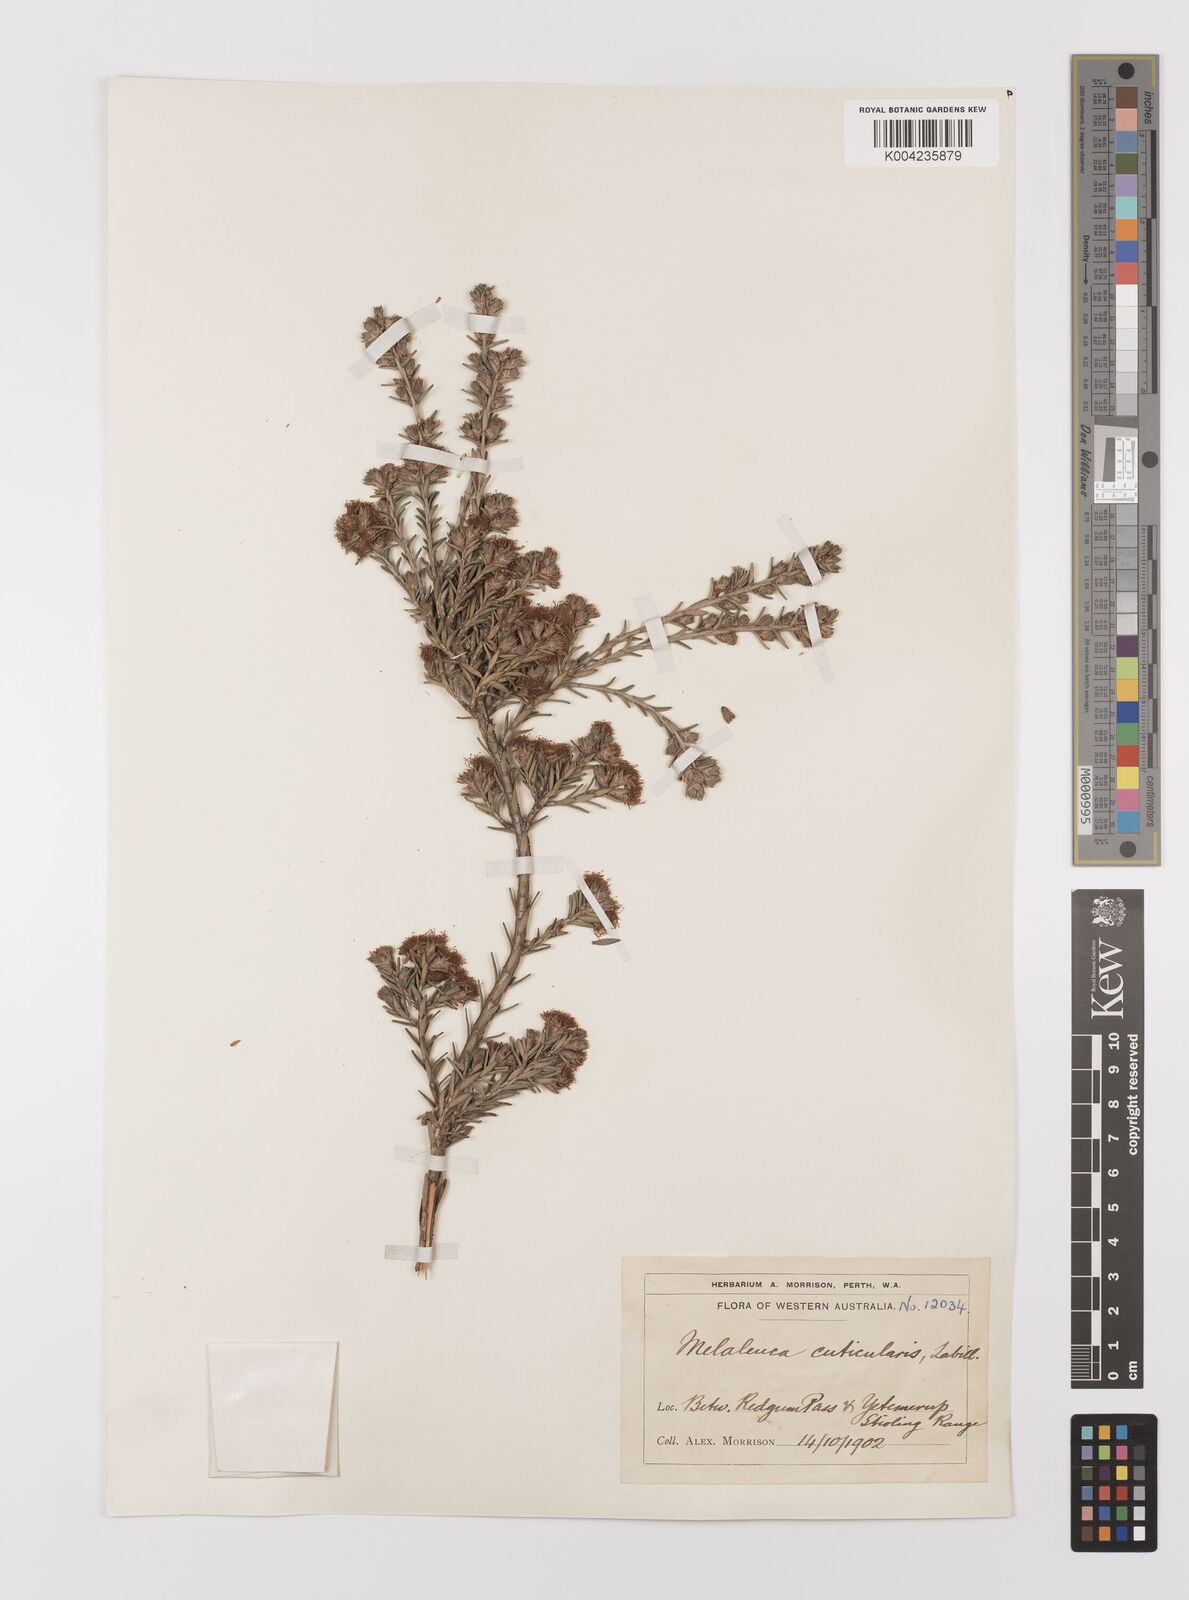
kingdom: Plantae
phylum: Tracheophyta
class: Magnoliopsida
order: Myrtales
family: Myrtaceae
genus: Melaleuca
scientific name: Melaleuca cuticularis
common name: Saltwater paperbark
